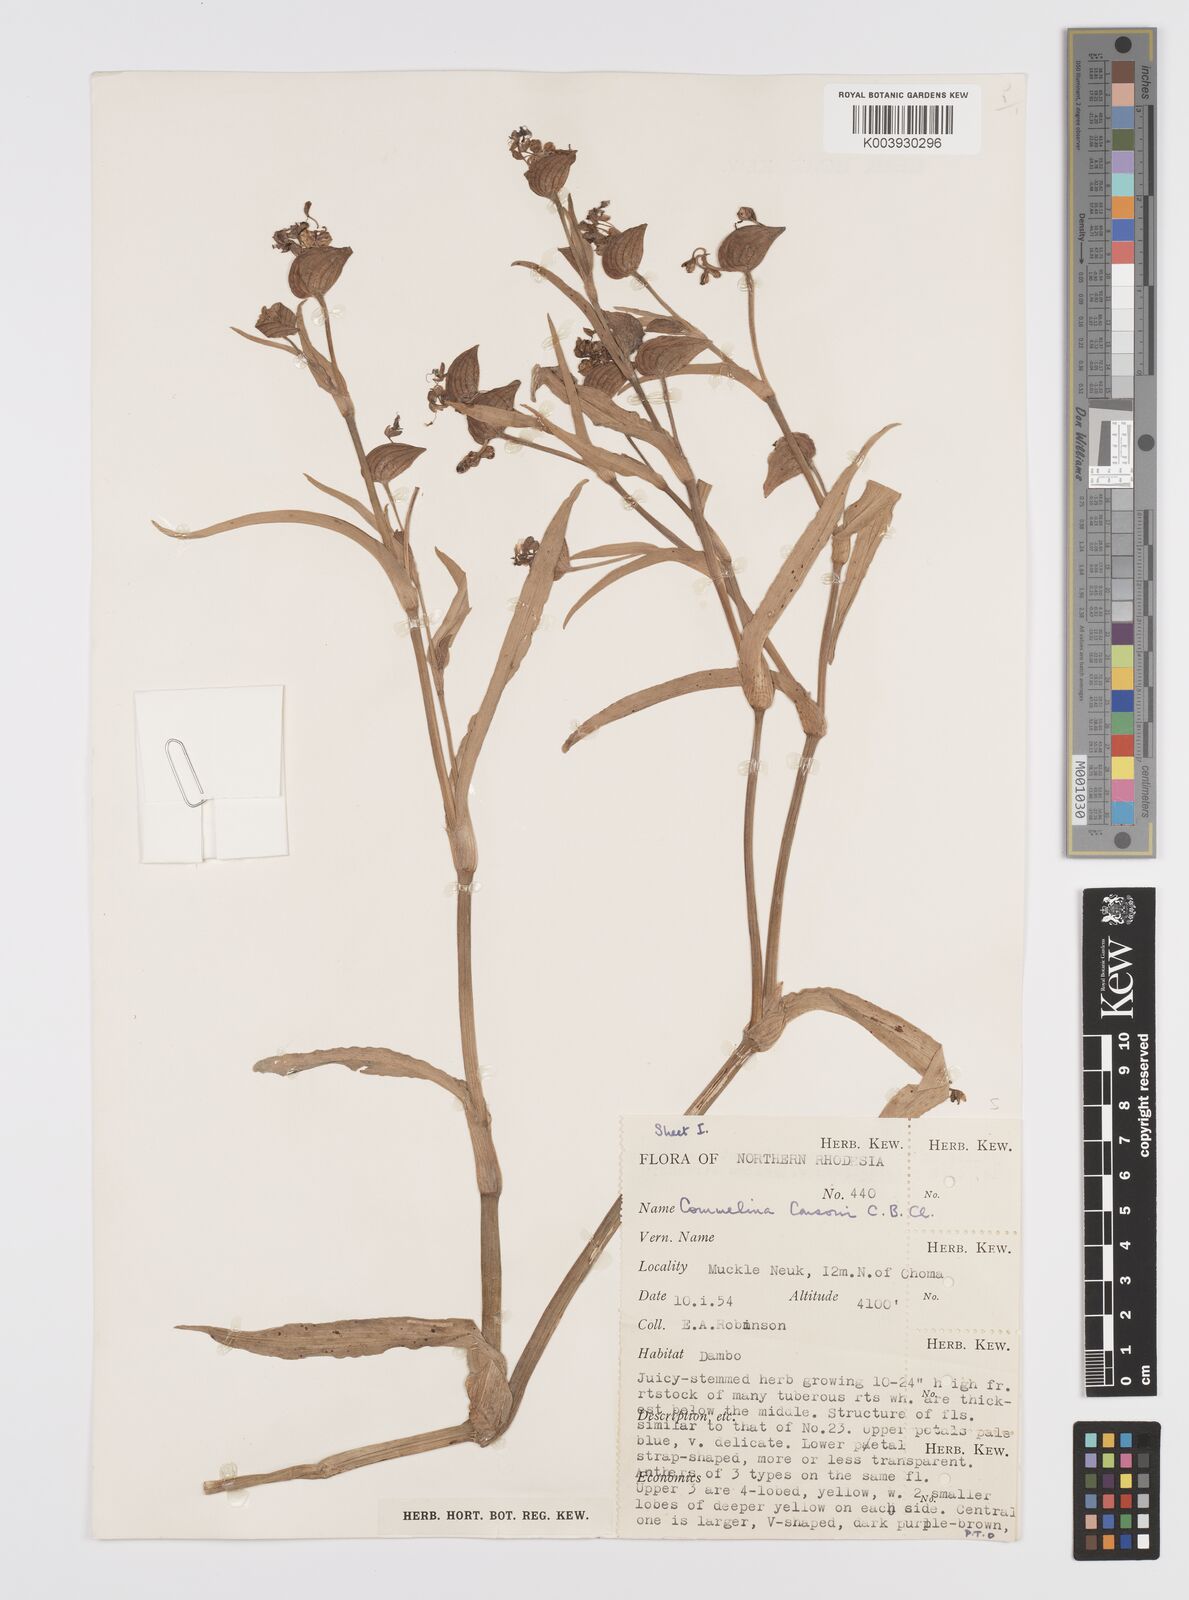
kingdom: Plantae
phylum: Tracheophyta
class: Liliopsida
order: Commelinales
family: Commelinaceae
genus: Commelina
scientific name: Commelina schweinfurthii
